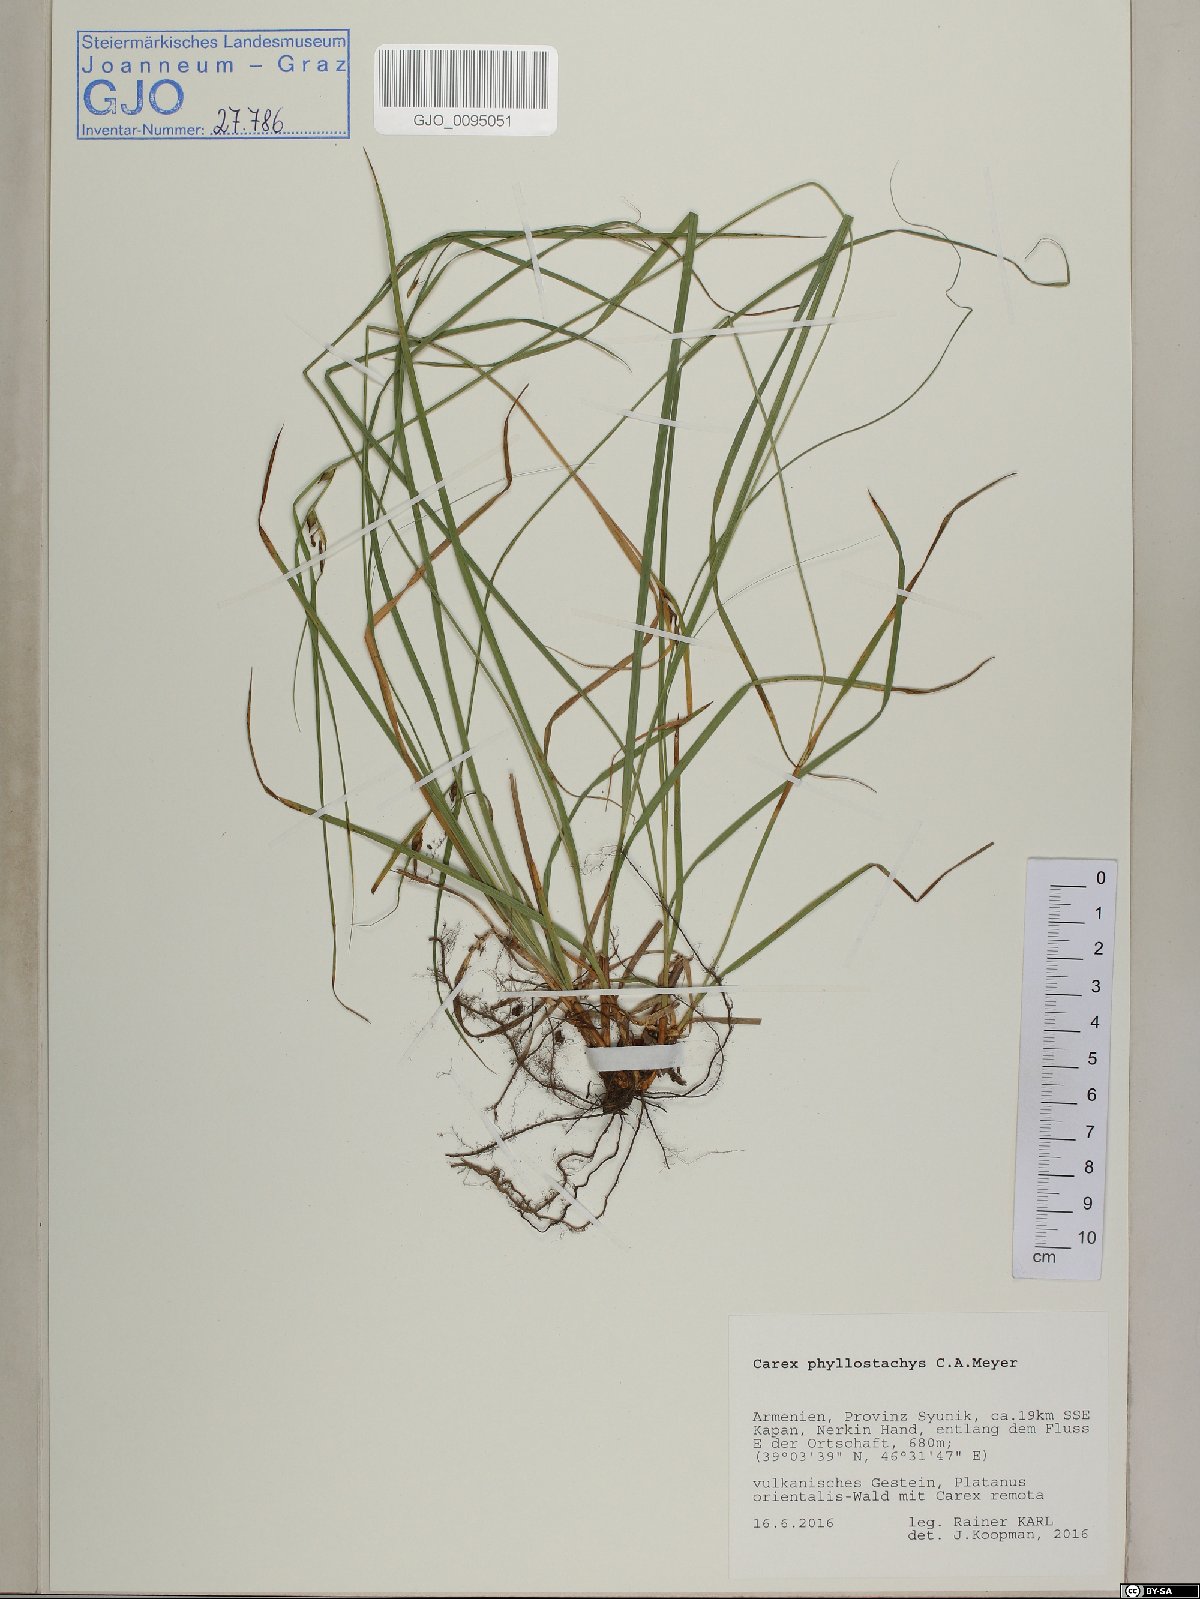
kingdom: Plantae
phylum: Tracheophyta
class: Liliopsida
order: Poales
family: Cyperaceae
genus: Carex
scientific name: Carex phyllostachys
